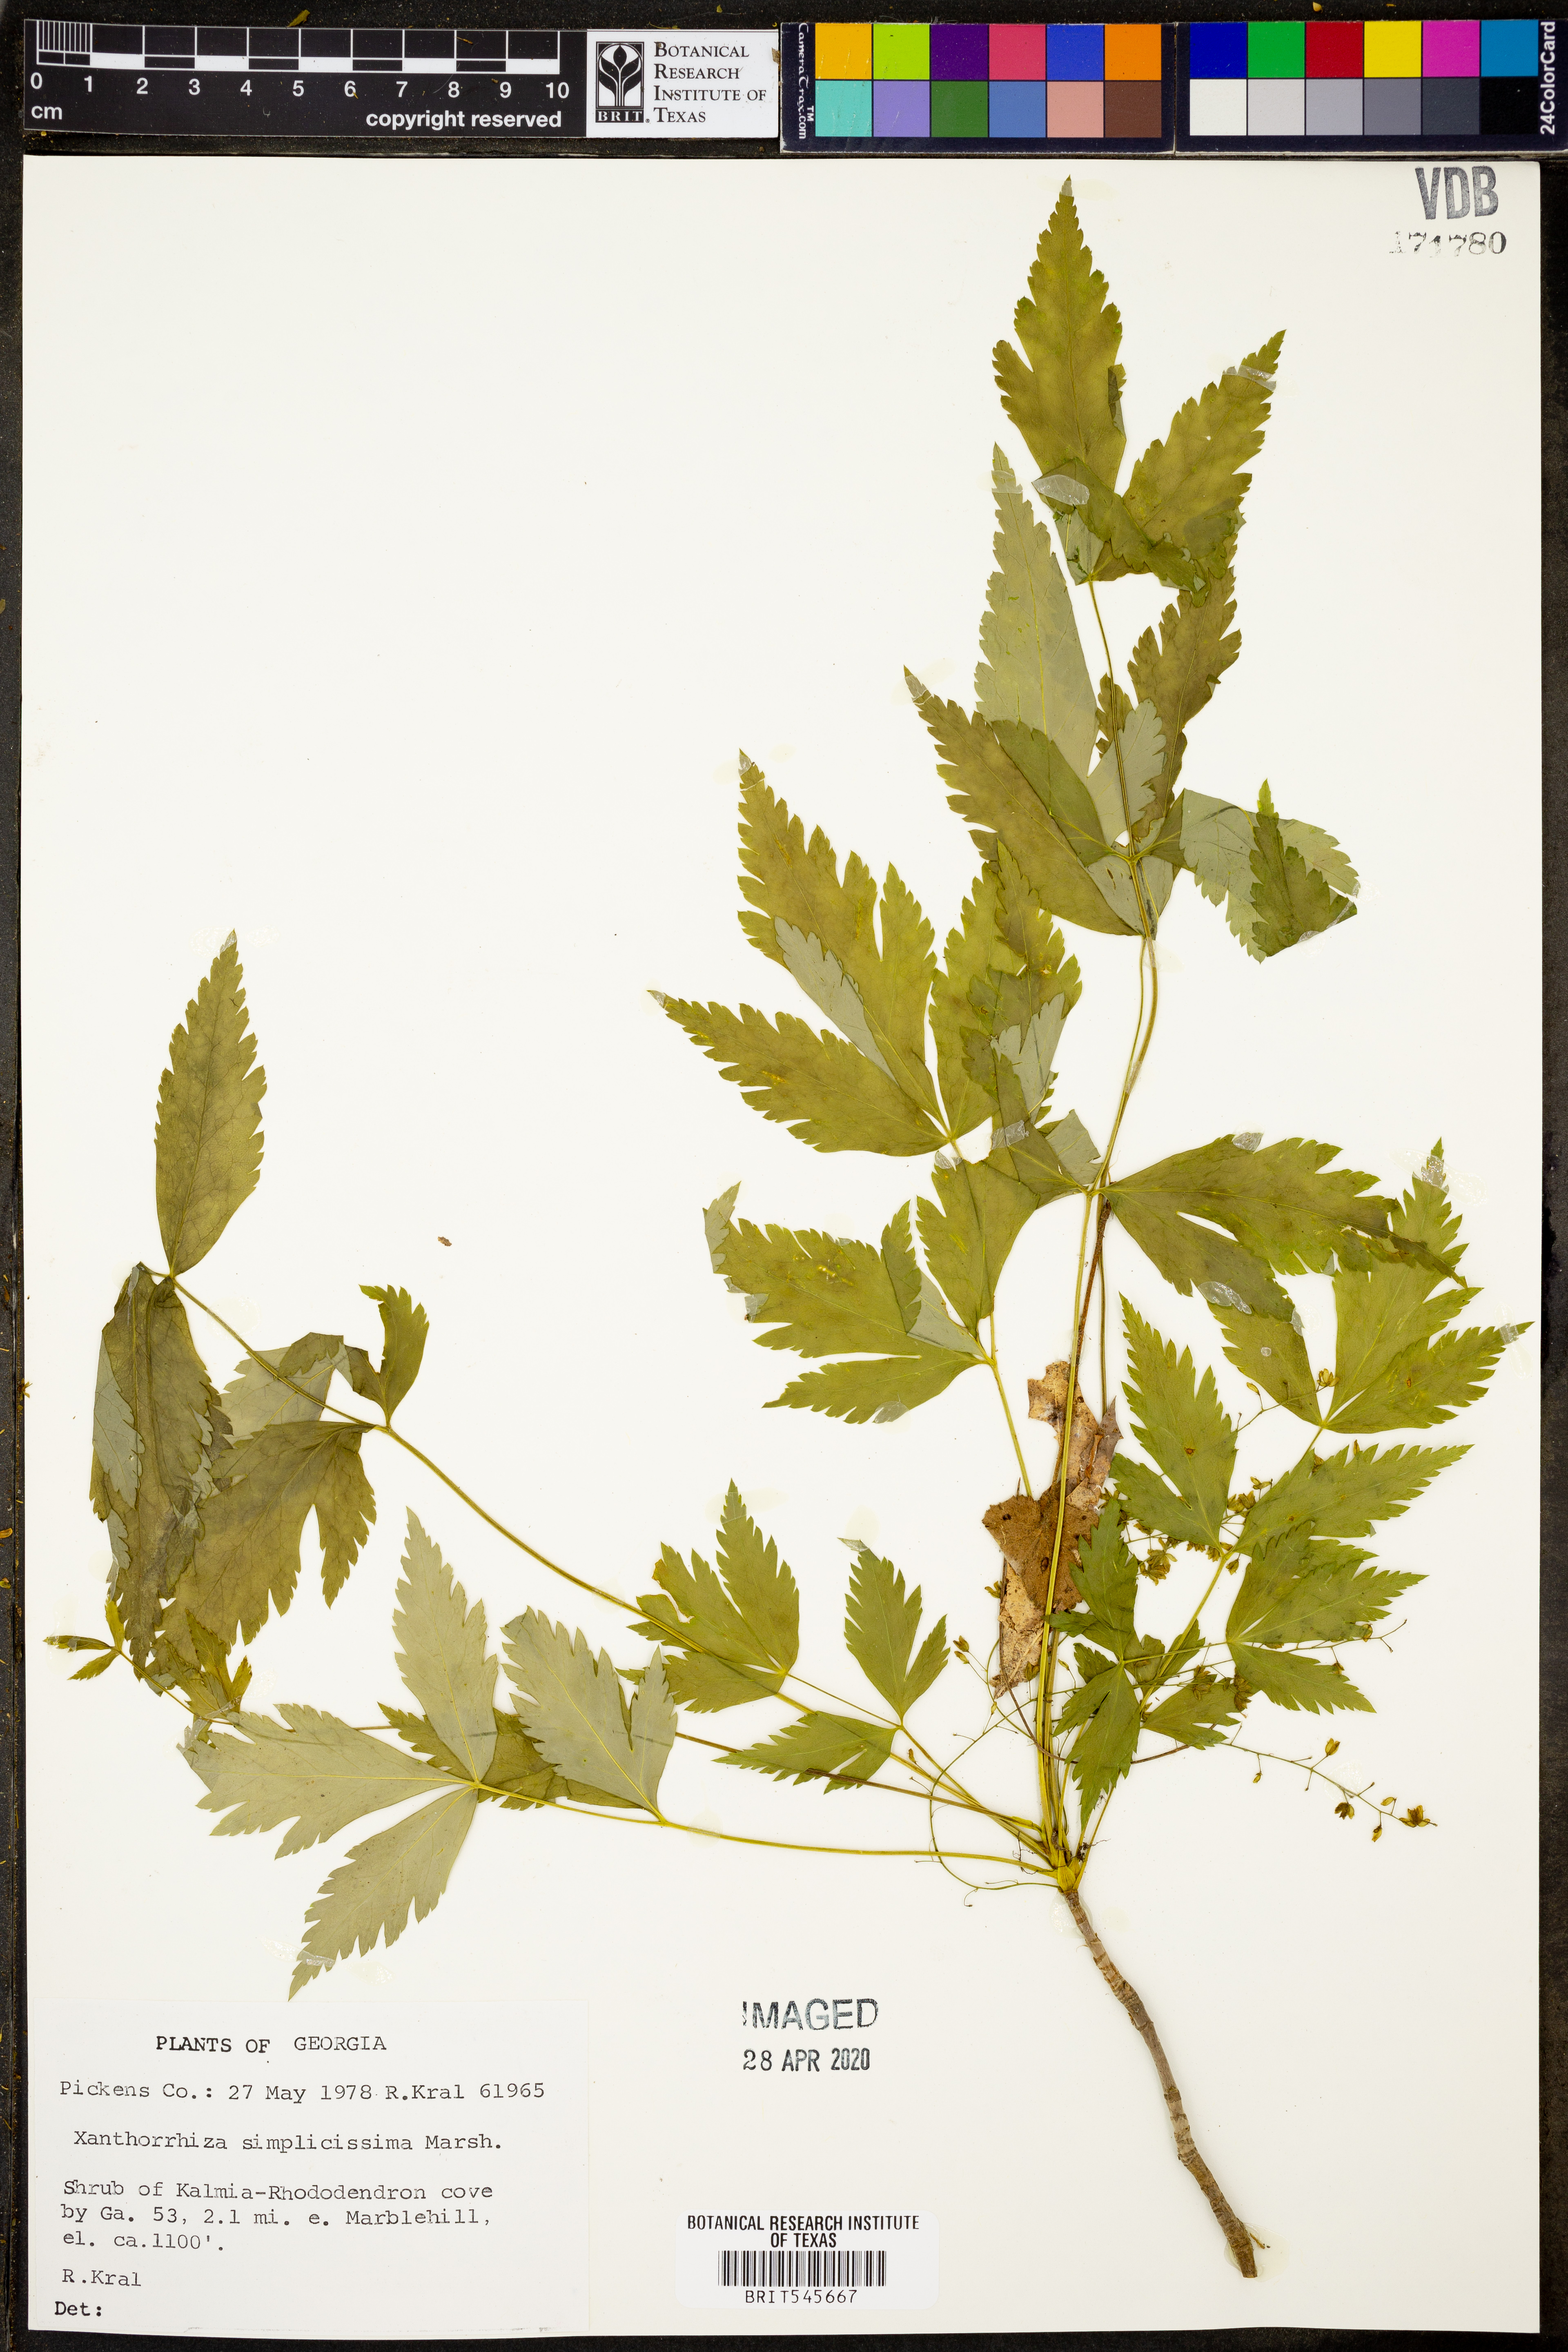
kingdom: Plantae
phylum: Tracheophyta
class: Magnoliopsida
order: Ranunculales
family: Ranunculaceae
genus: Xanthorhiza
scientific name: Xanthorhiza simplicissima
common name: Yellowroot
